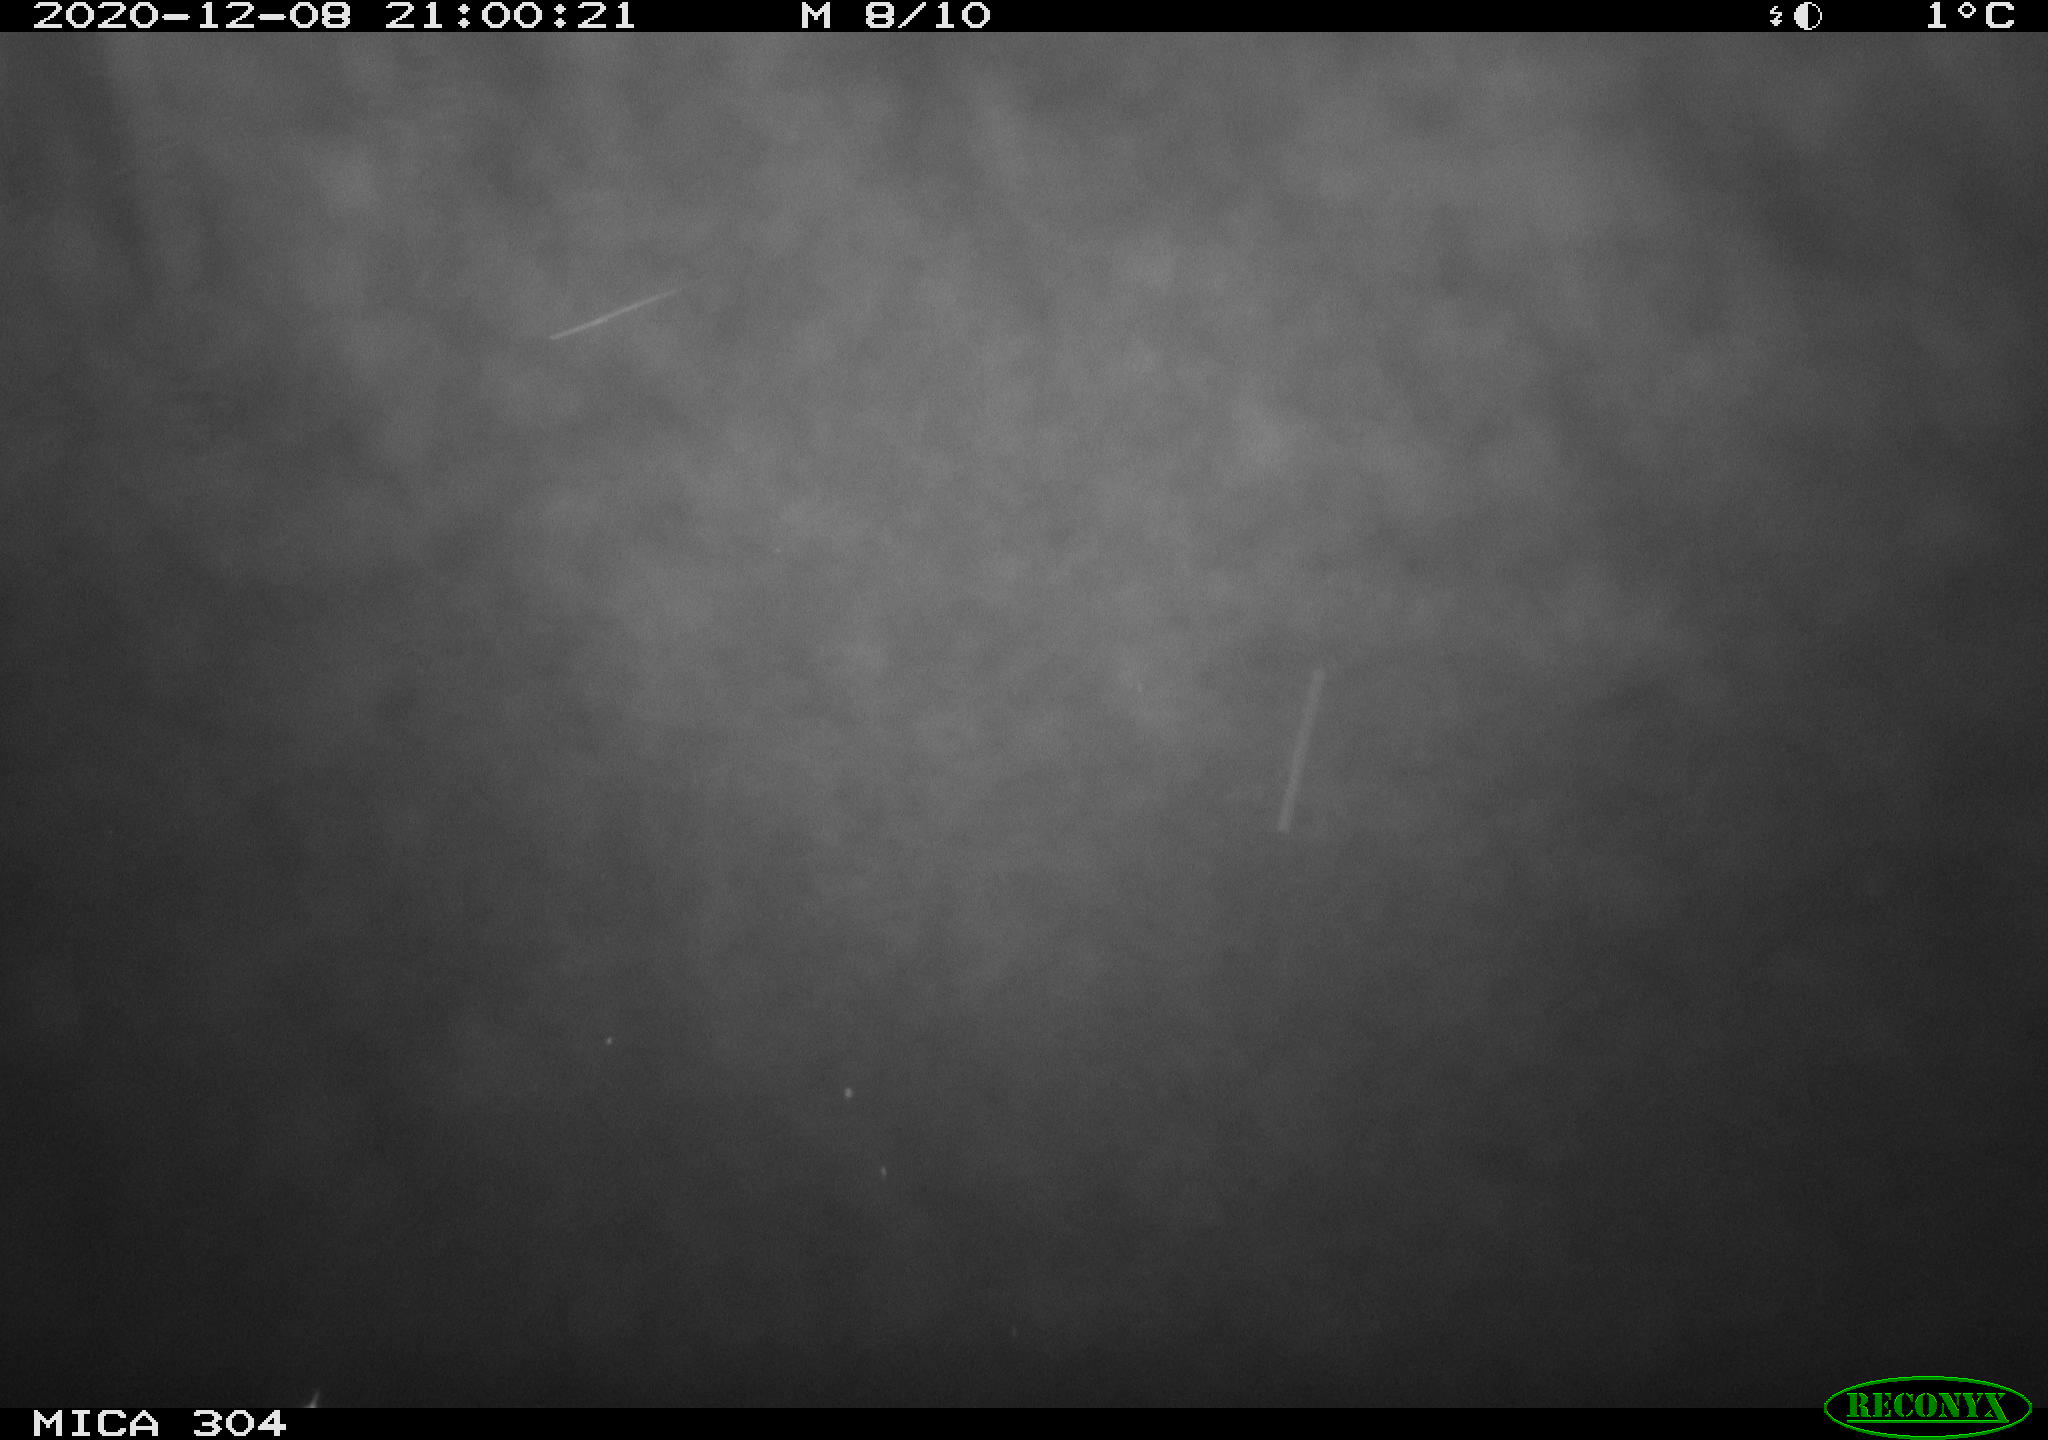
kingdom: Animalia
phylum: Chordata
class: Mammalia
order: Rodentia
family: Muridae
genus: Rattus
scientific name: Rattus norvegicus
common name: Brown rat
